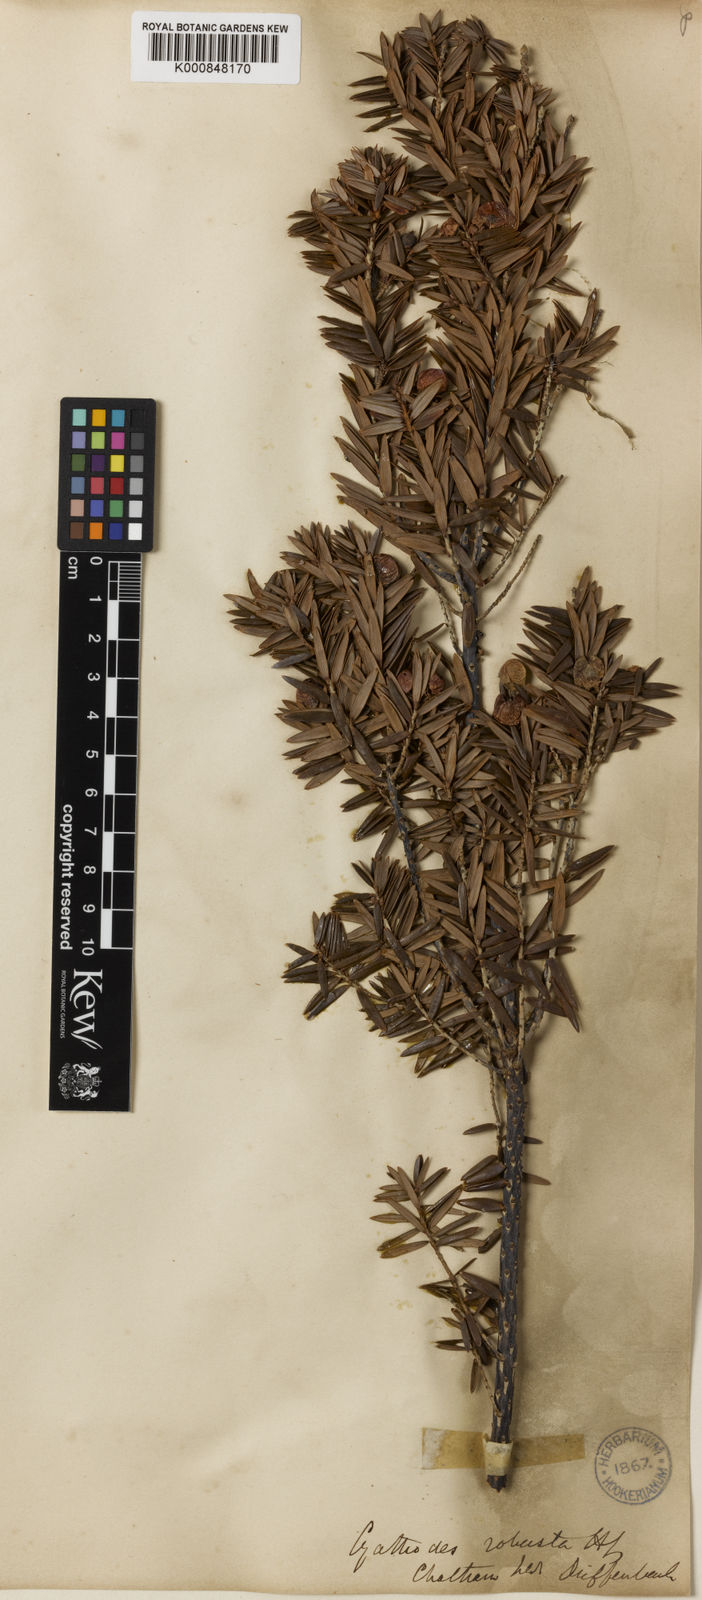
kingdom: Plantae
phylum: Tracheophyta
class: Magnoliopsida
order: Ericales
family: Ericaceae
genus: Leptecophylla
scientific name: Leptecophylla robusta
